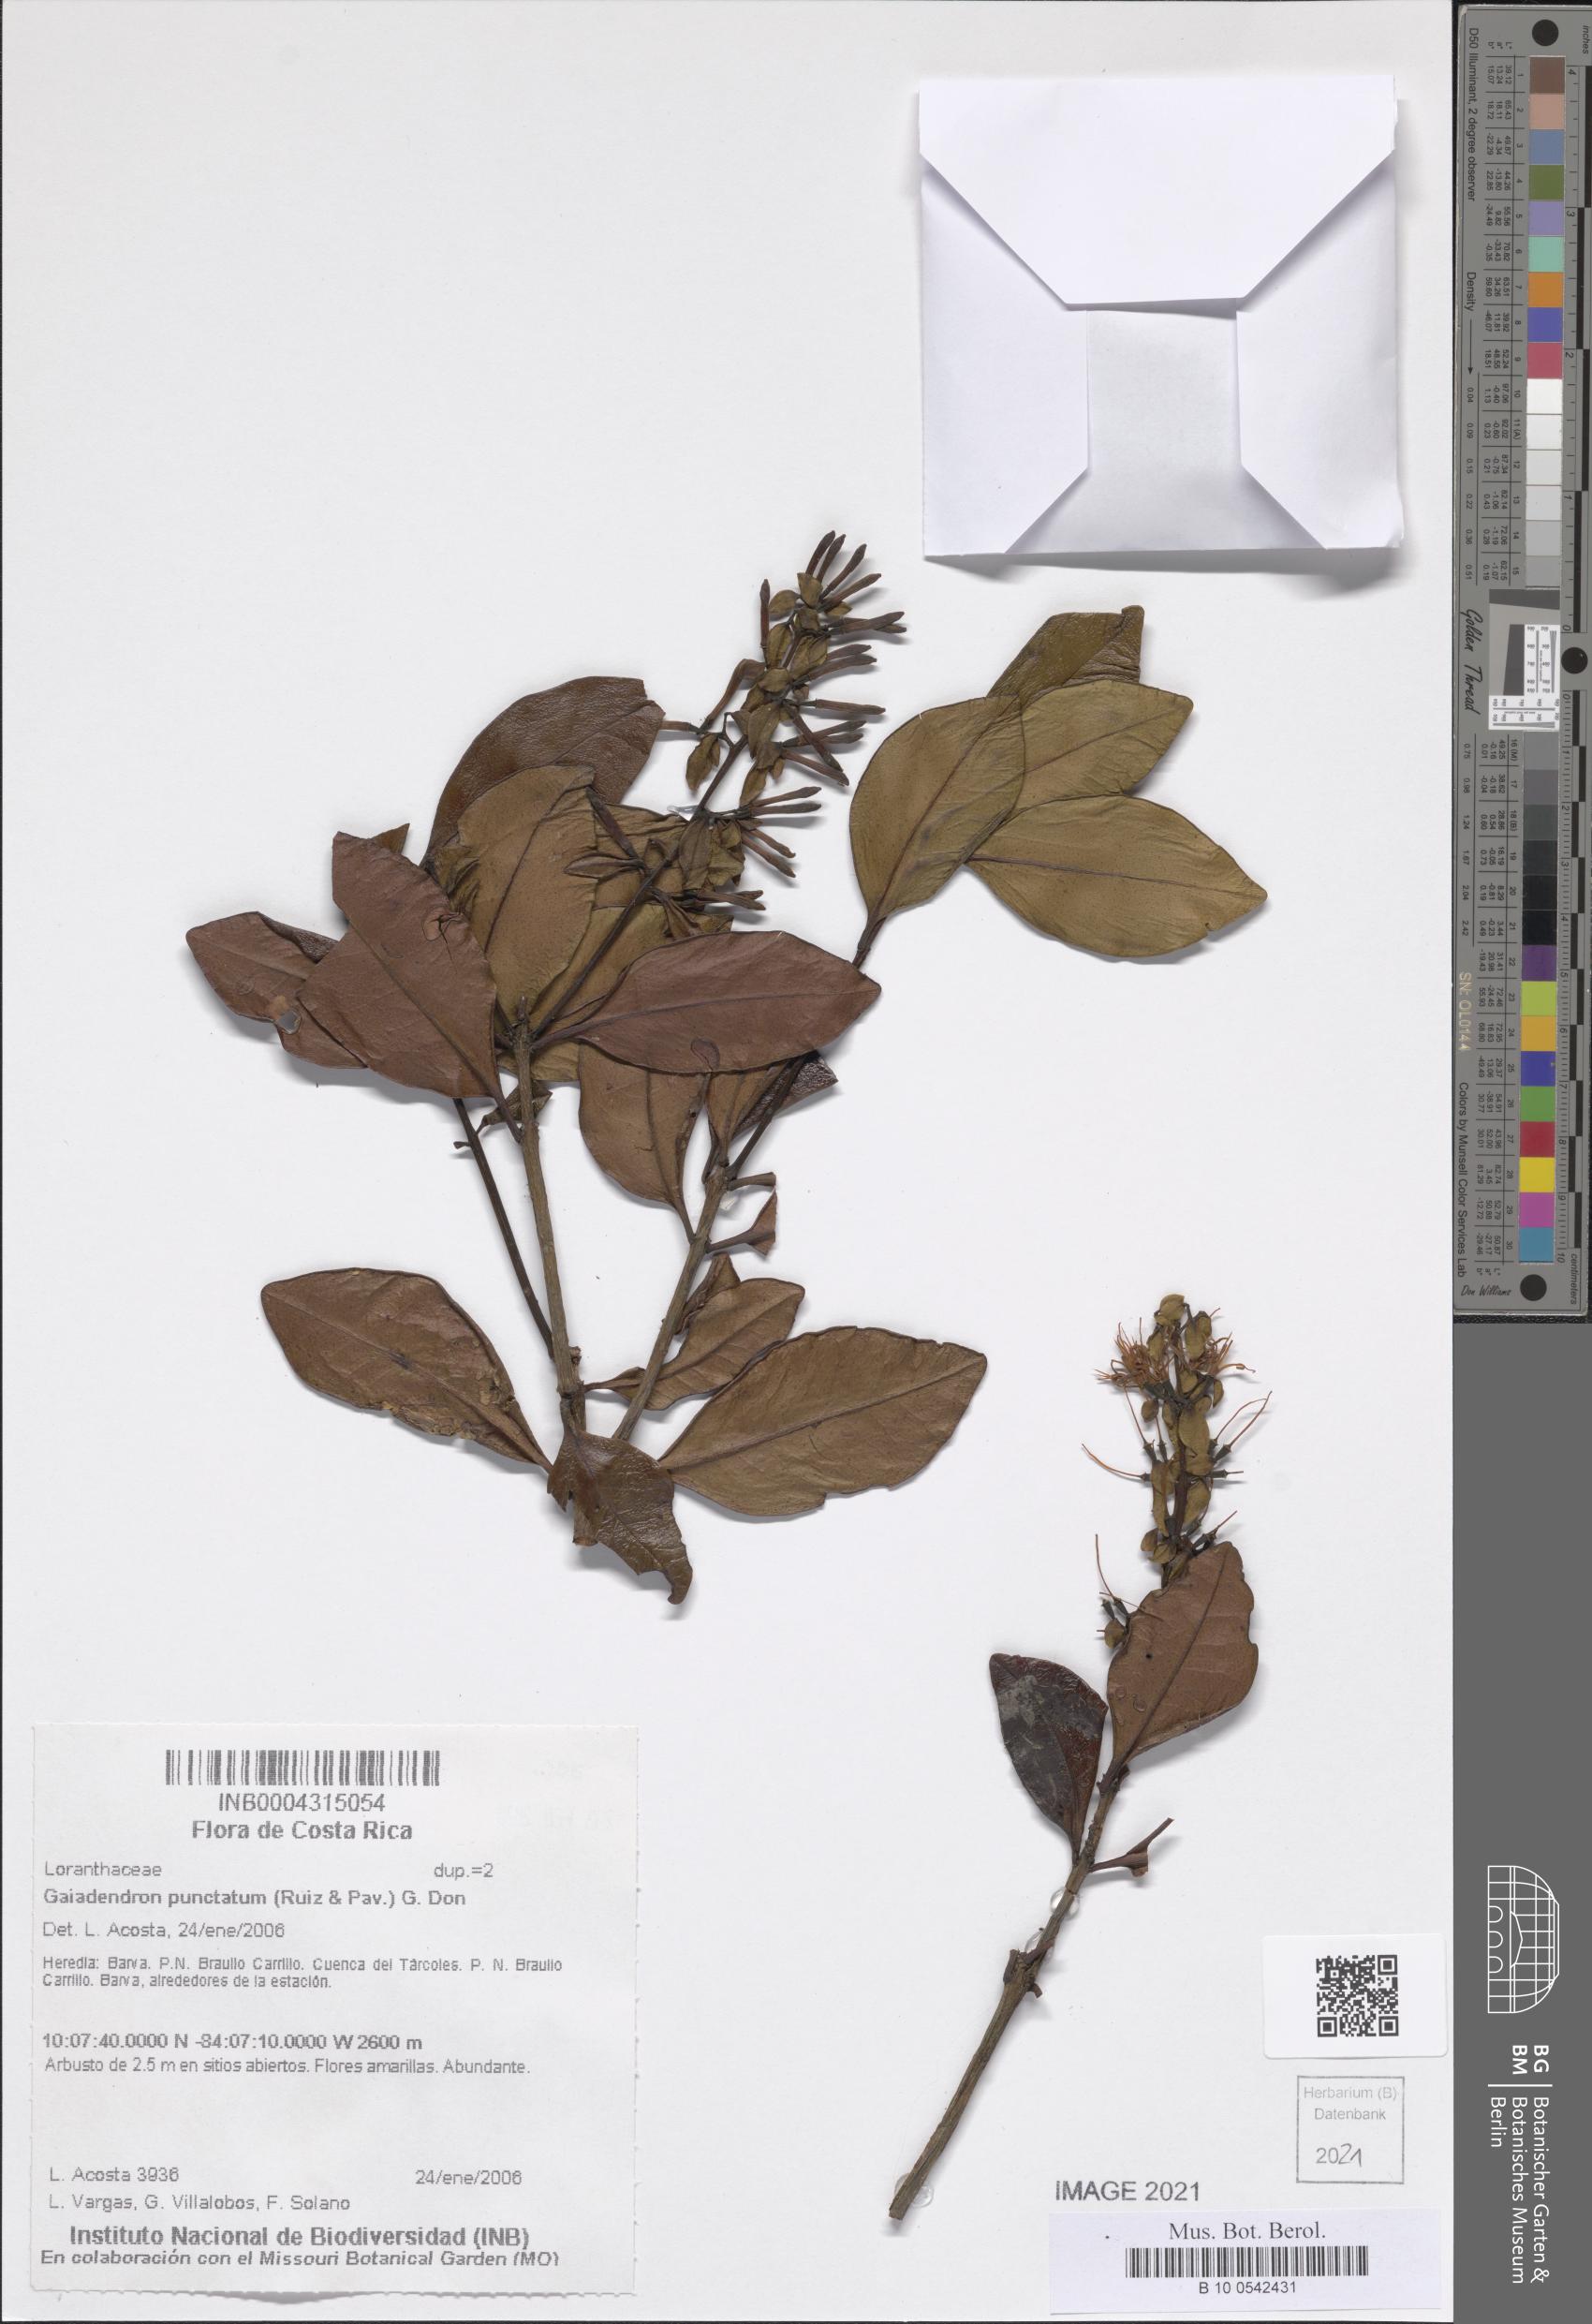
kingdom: Plantae
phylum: Tracheophyta
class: Magnoliopsida
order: Santalales
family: Loranthaceae
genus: Gaiadendron
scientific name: Gaiadendron punctatum
